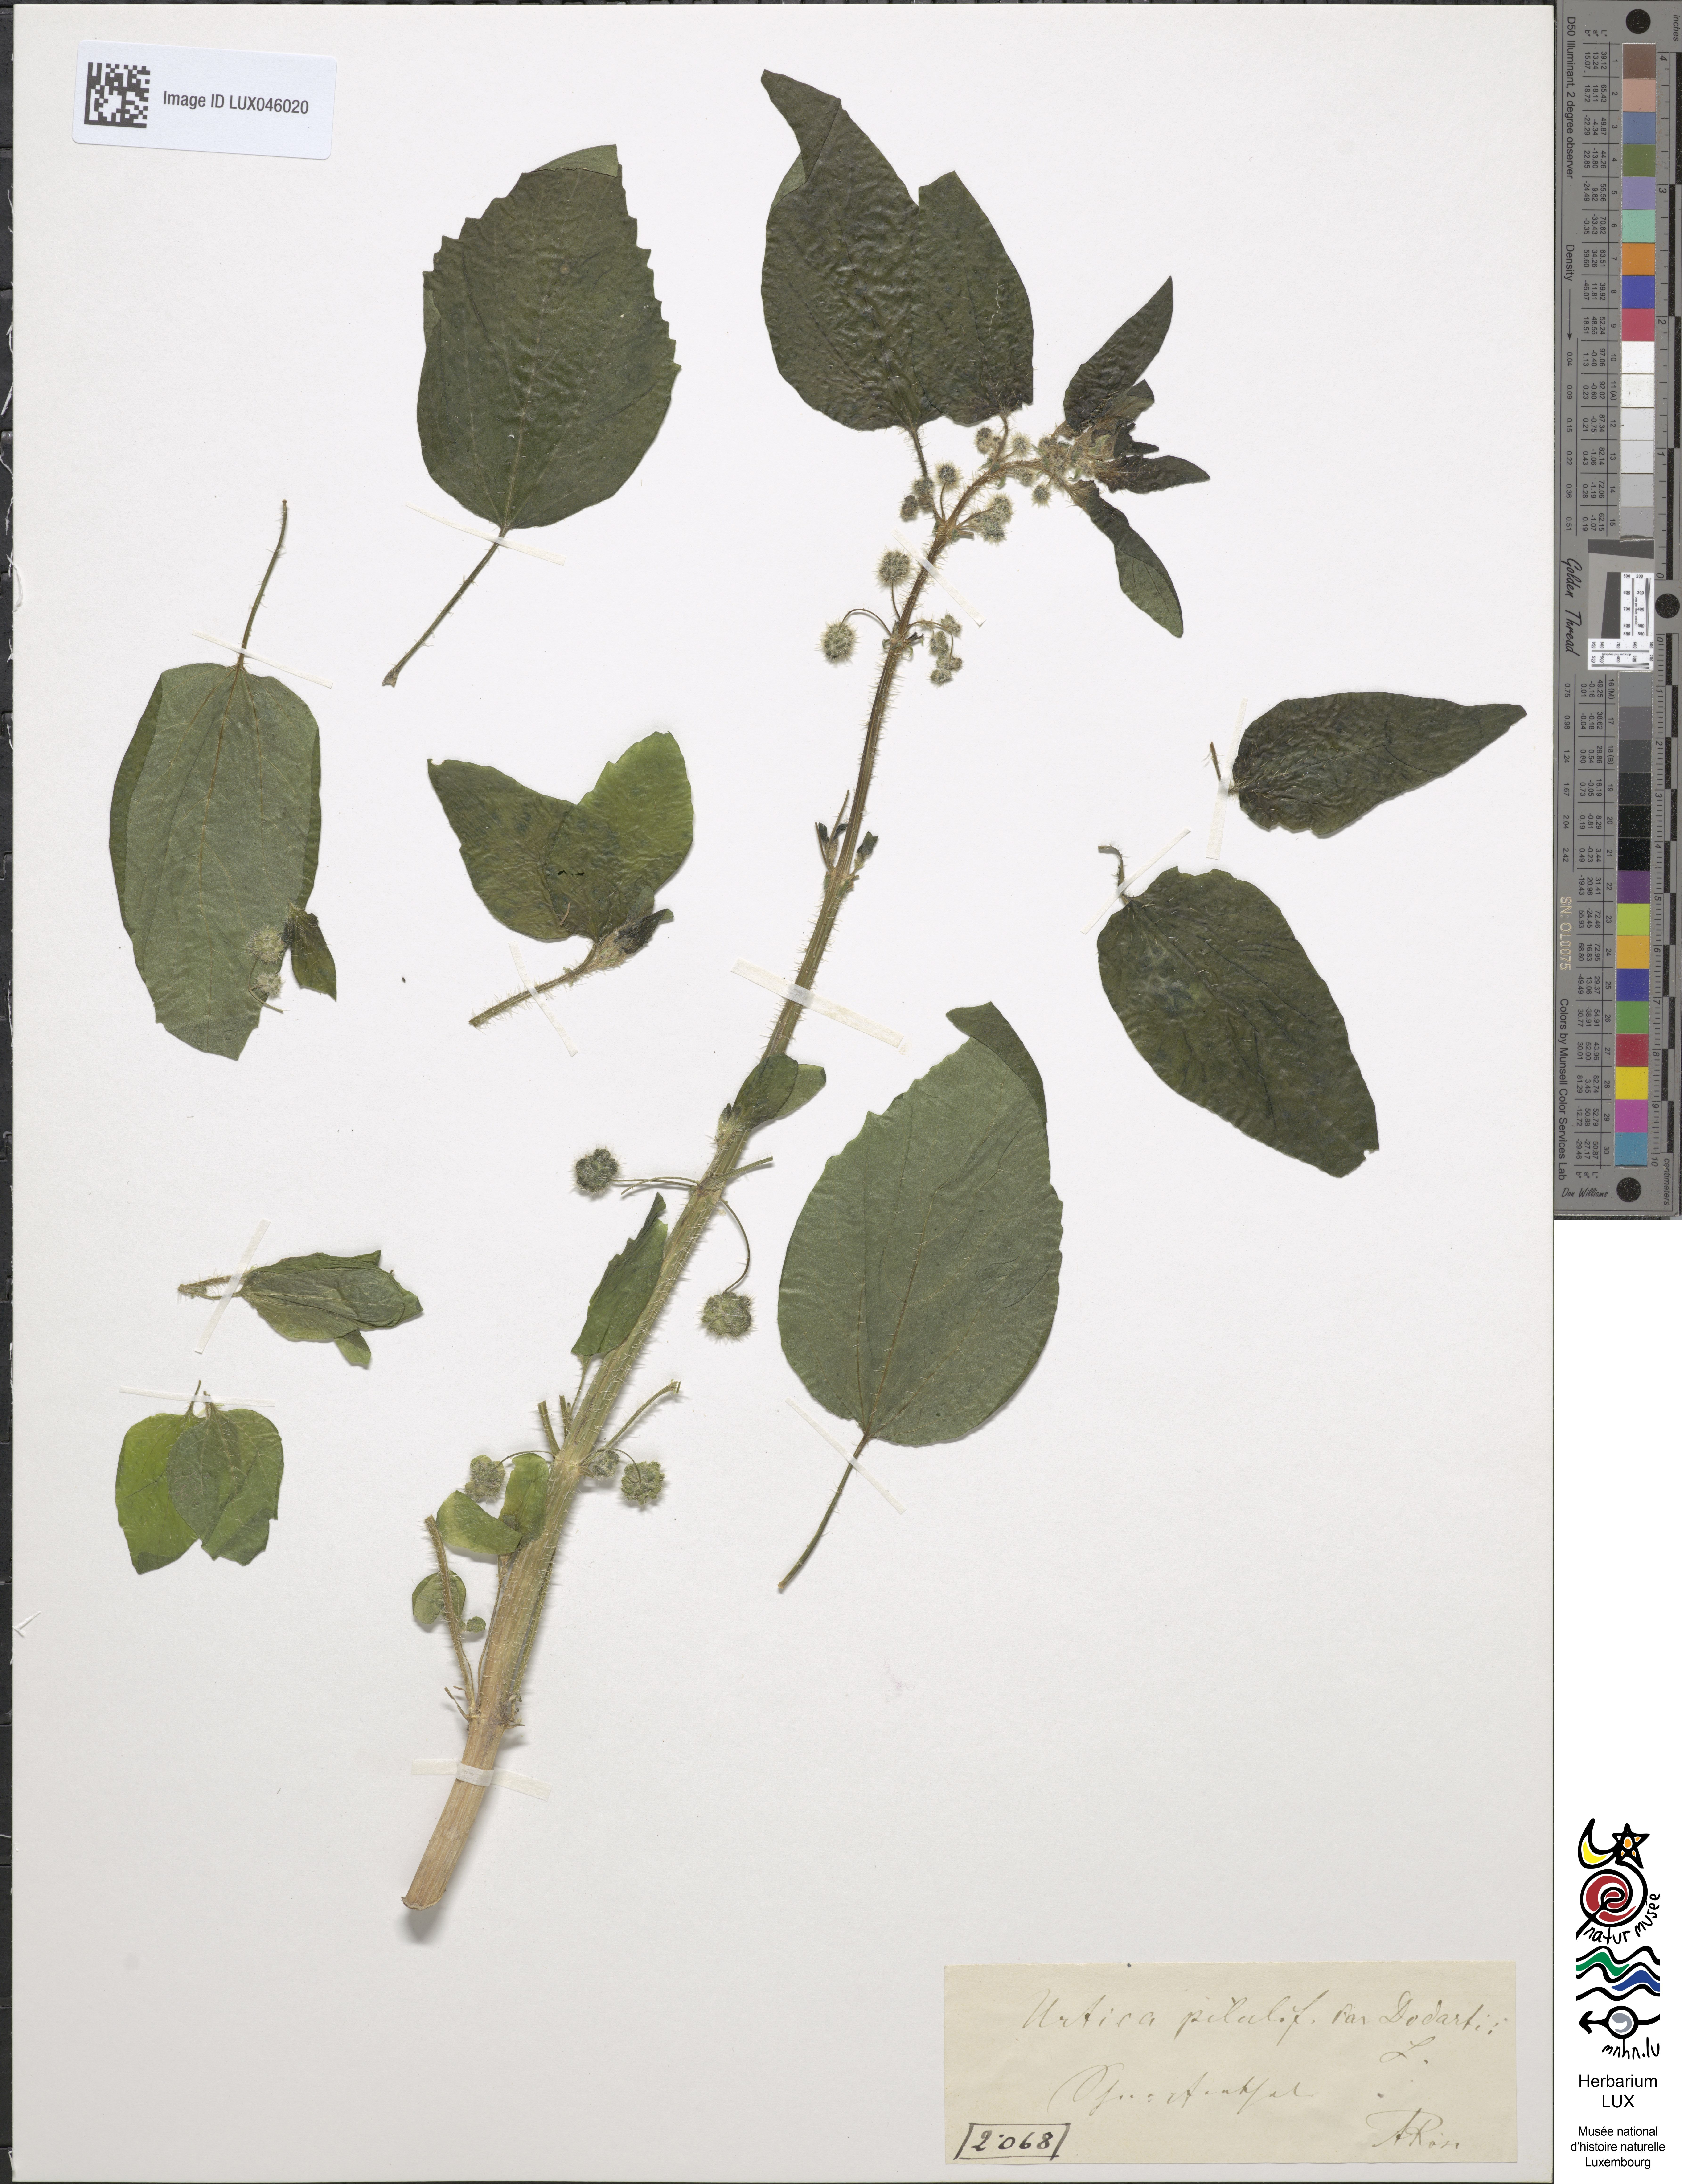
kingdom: Plantae
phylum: Tracheophyta
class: Magnoliopsida
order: Rosales
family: Urticaceae
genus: Urtica
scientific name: Urtica pilulifera
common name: Roman nettle
